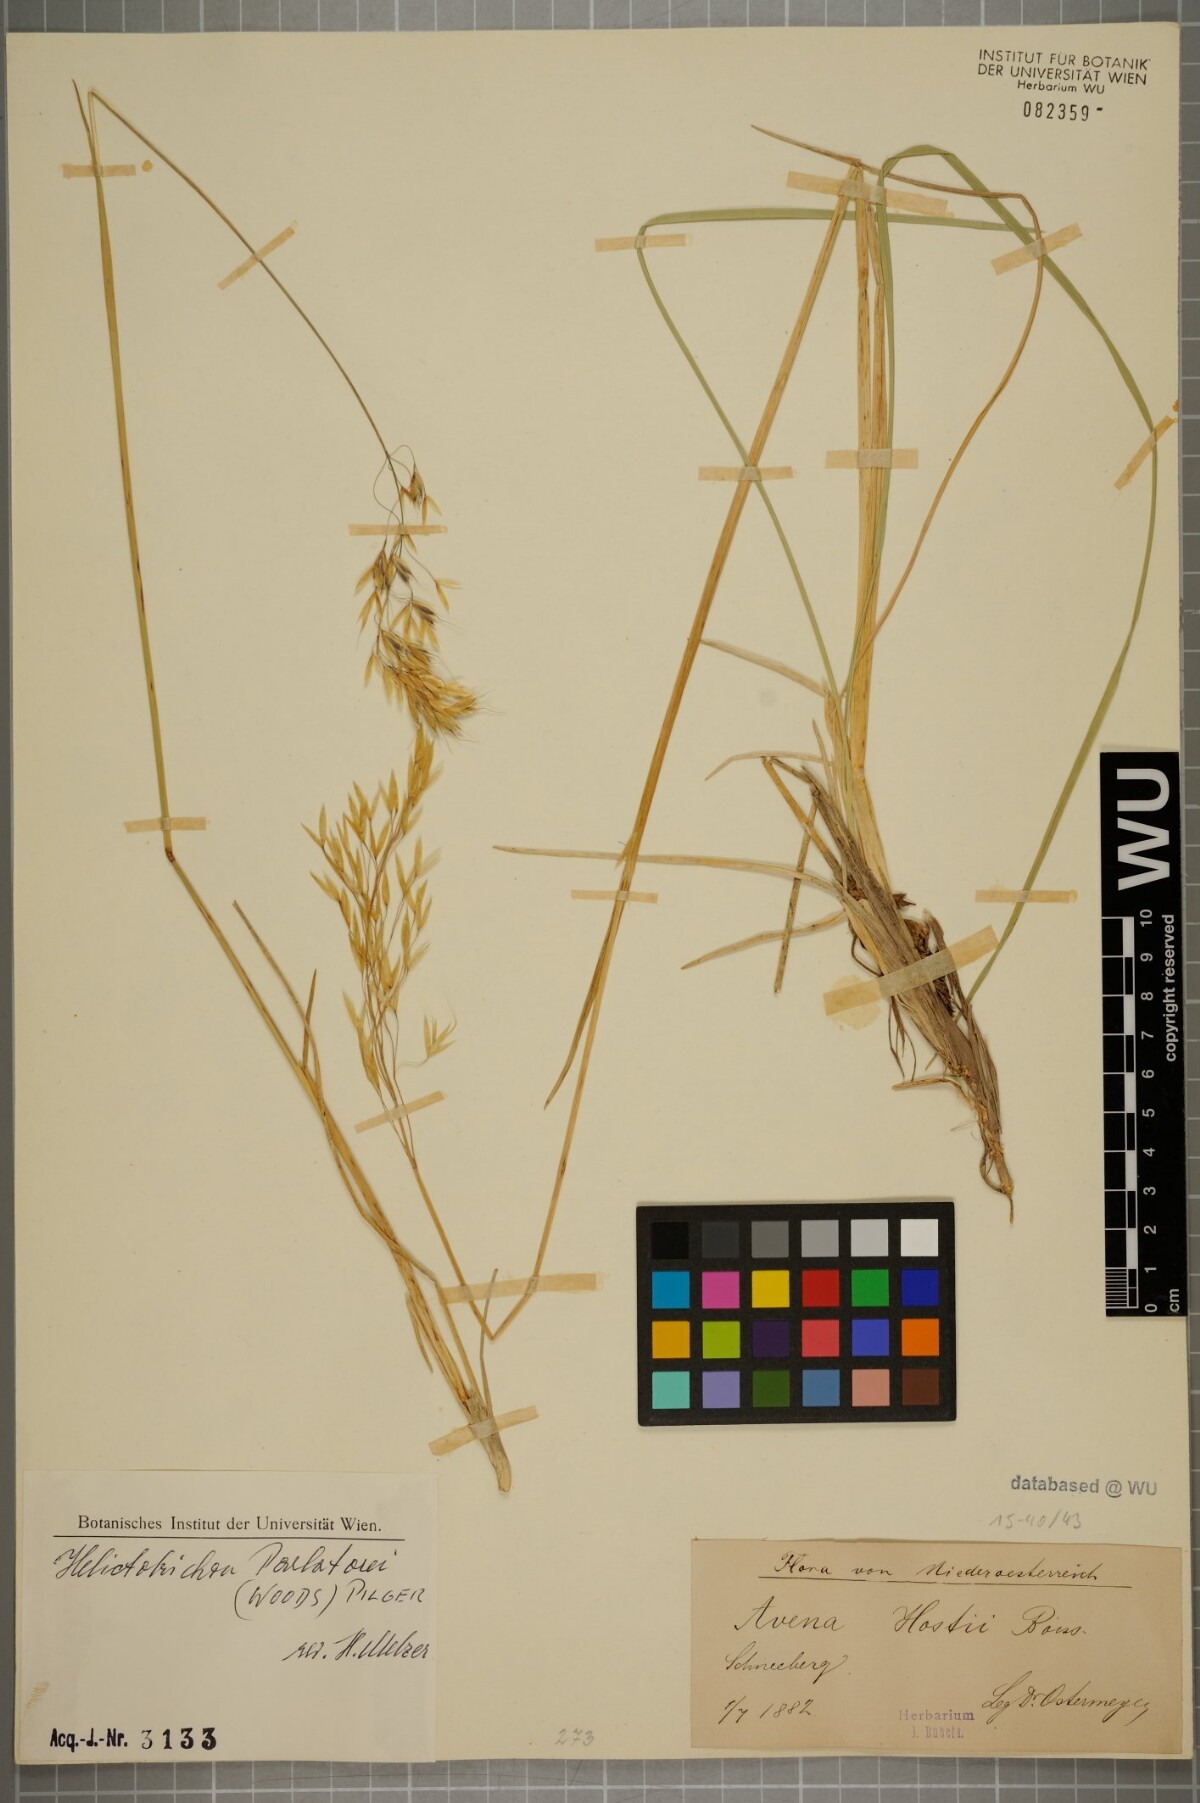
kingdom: Plantae
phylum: Tracheophyta
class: Liliopsida
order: Poales
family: Poaceae
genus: Helictotrichon
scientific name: Helictotrichon parlatorei
